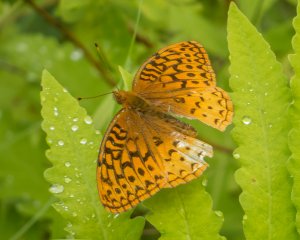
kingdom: Animalia
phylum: Arthropoda
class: Insecta
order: Lepidoptera
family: Nymphalidae
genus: Speyeria
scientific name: Speyeria aphrodite
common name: Aphrodite Fritillary
